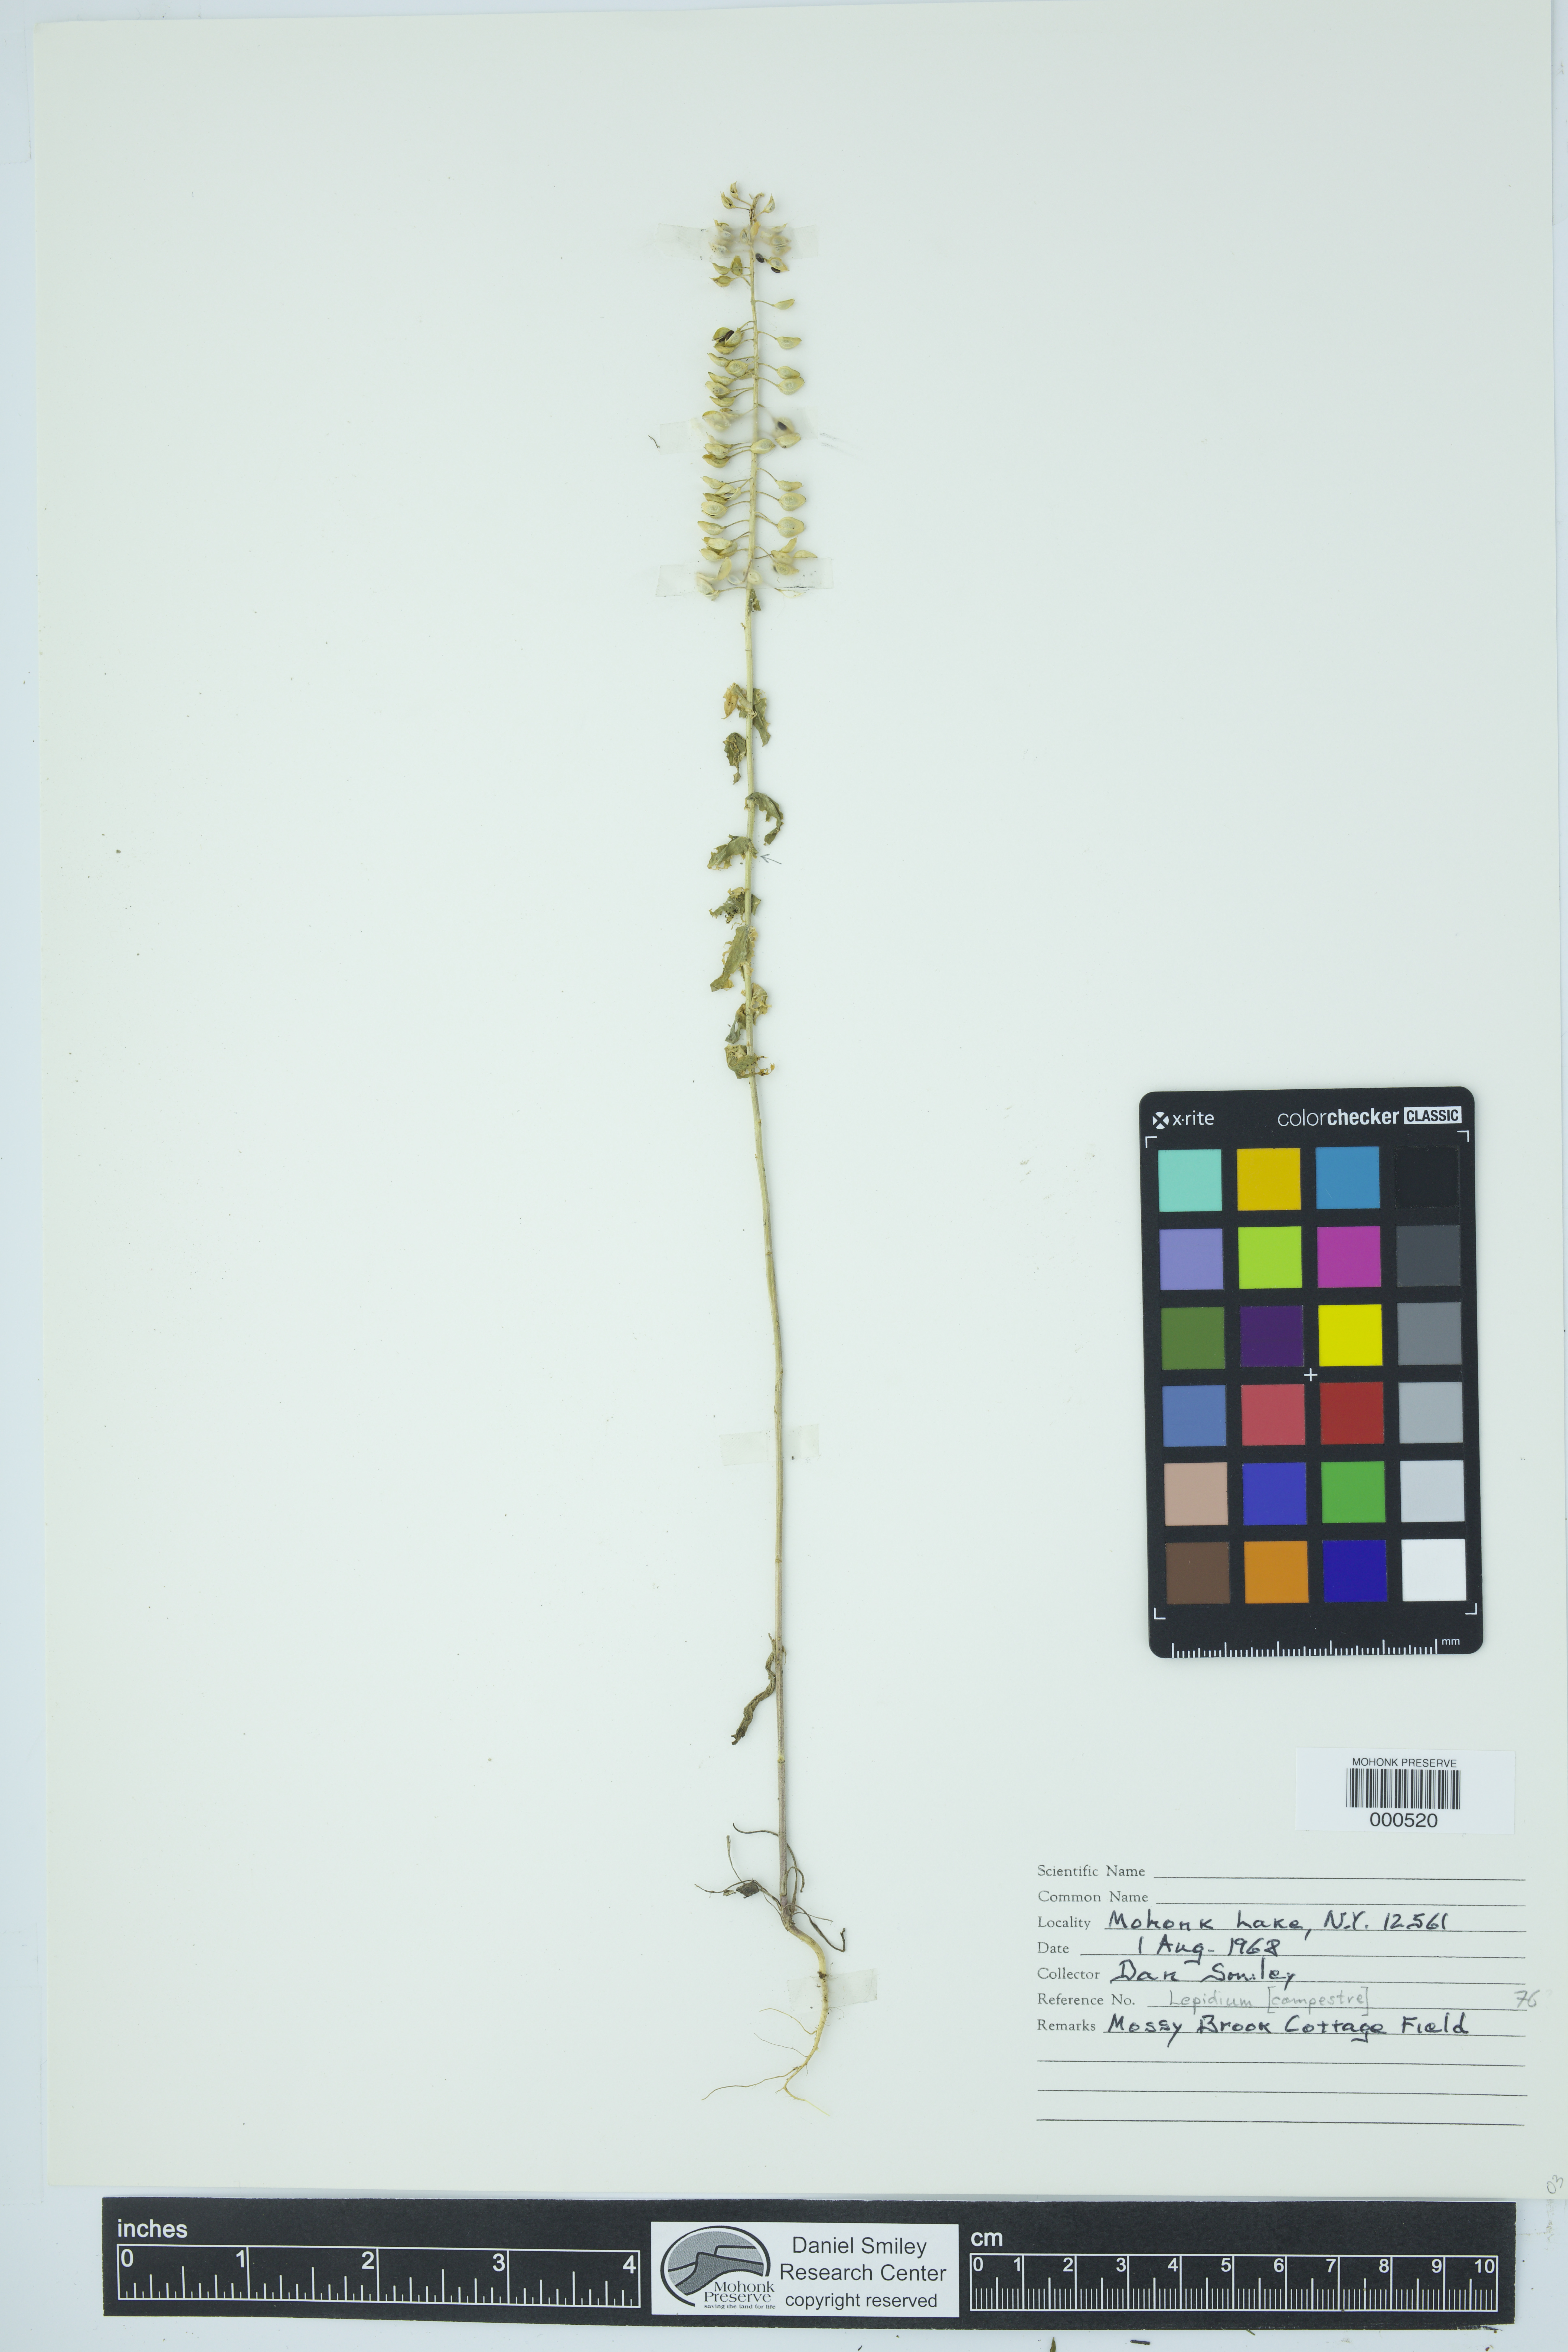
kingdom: Plantae
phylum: Tracheophyta
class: Magnoliopsida
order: Brassicales
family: Brassicaceae
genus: Lepidium
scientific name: Lepidium campestre
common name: Field pepperwort
